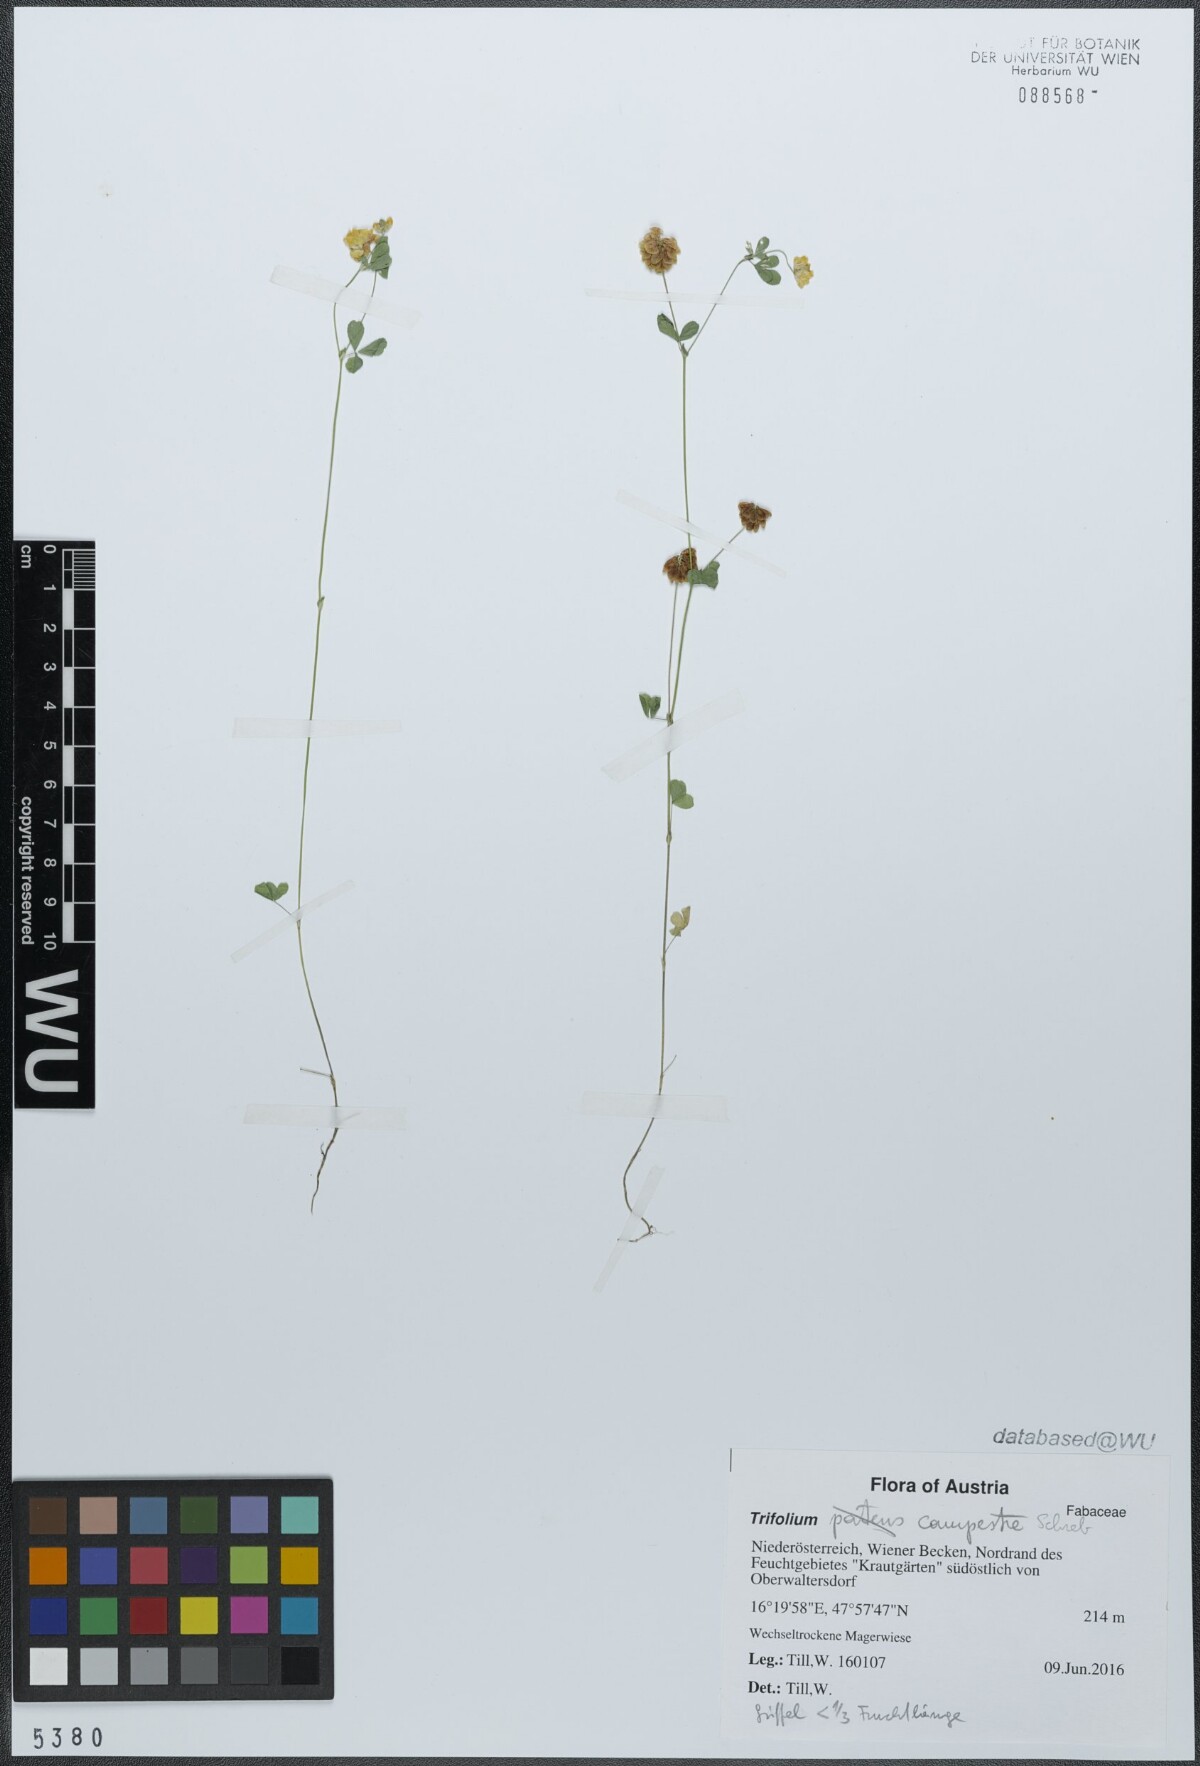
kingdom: Plantae
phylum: Tracheophyta
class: Magnoliopsida
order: Fabales
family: Fabaceae
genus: Trifolium
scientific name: Trifolium campestre
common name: Field clover
